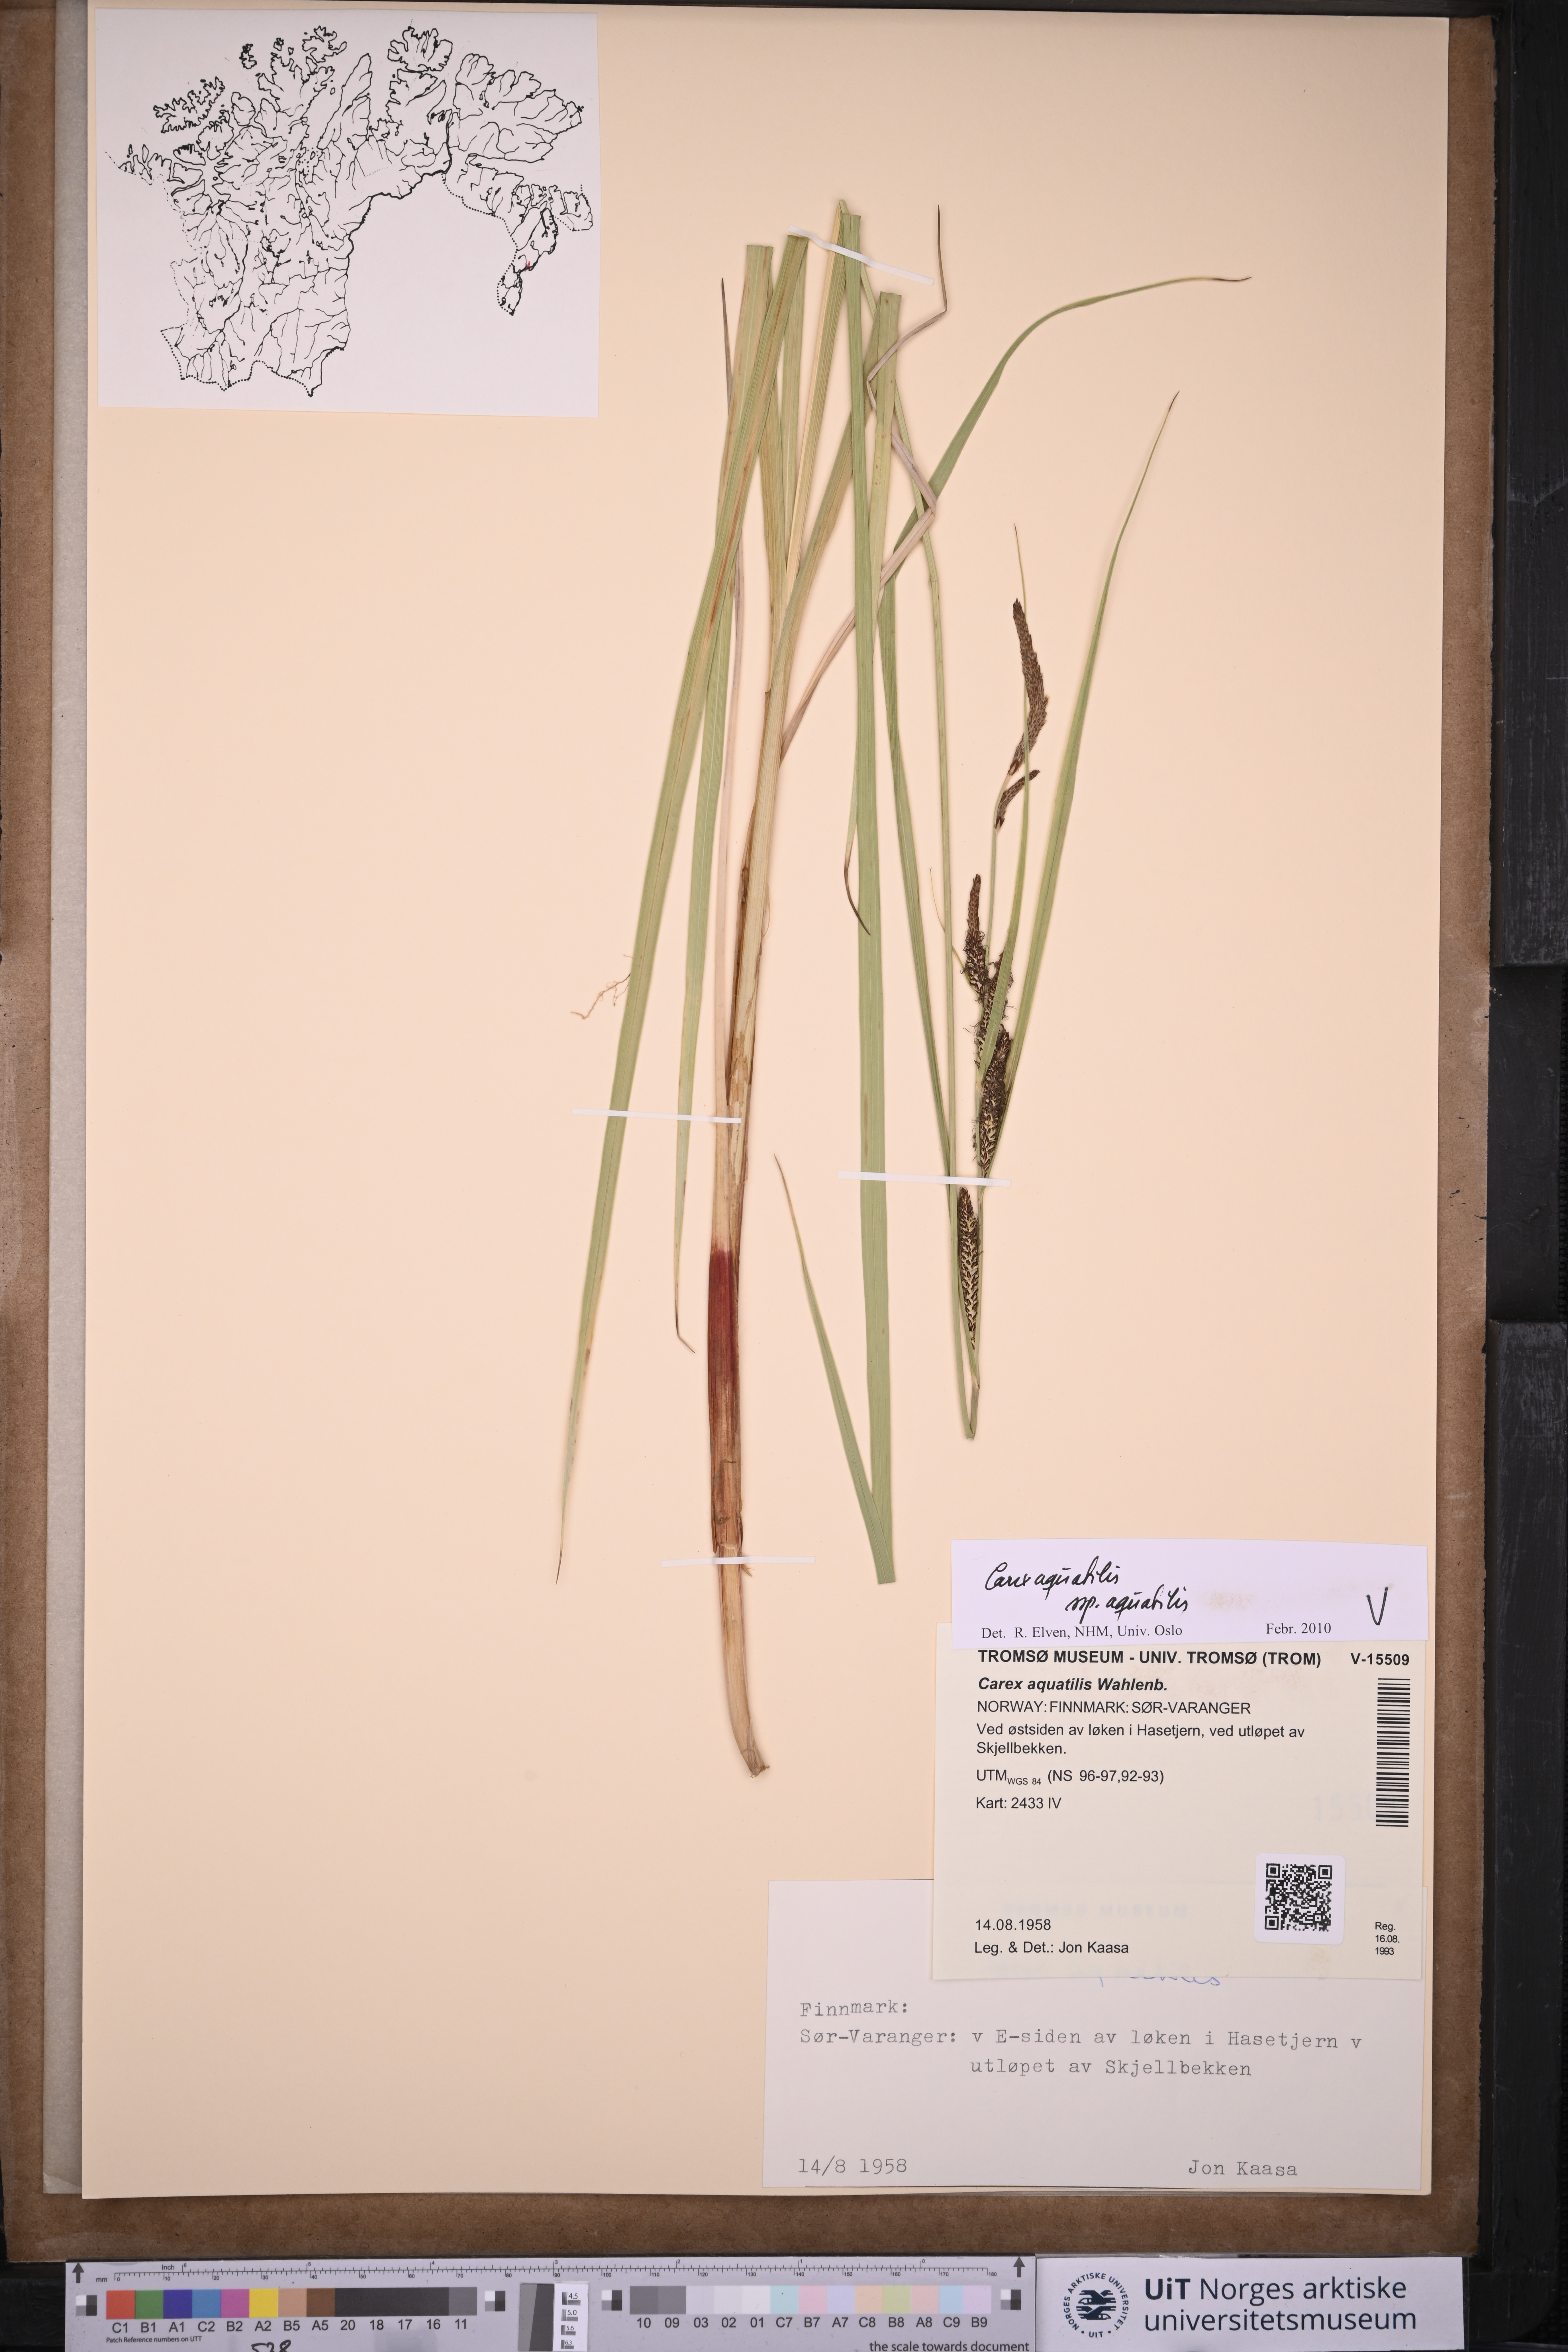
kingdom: Plantae
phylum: Tracheophyta
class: Liliopsida
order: Poales
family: Cyperaceae
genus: Carex
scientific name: Carex aquatilis
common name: Water sedge
